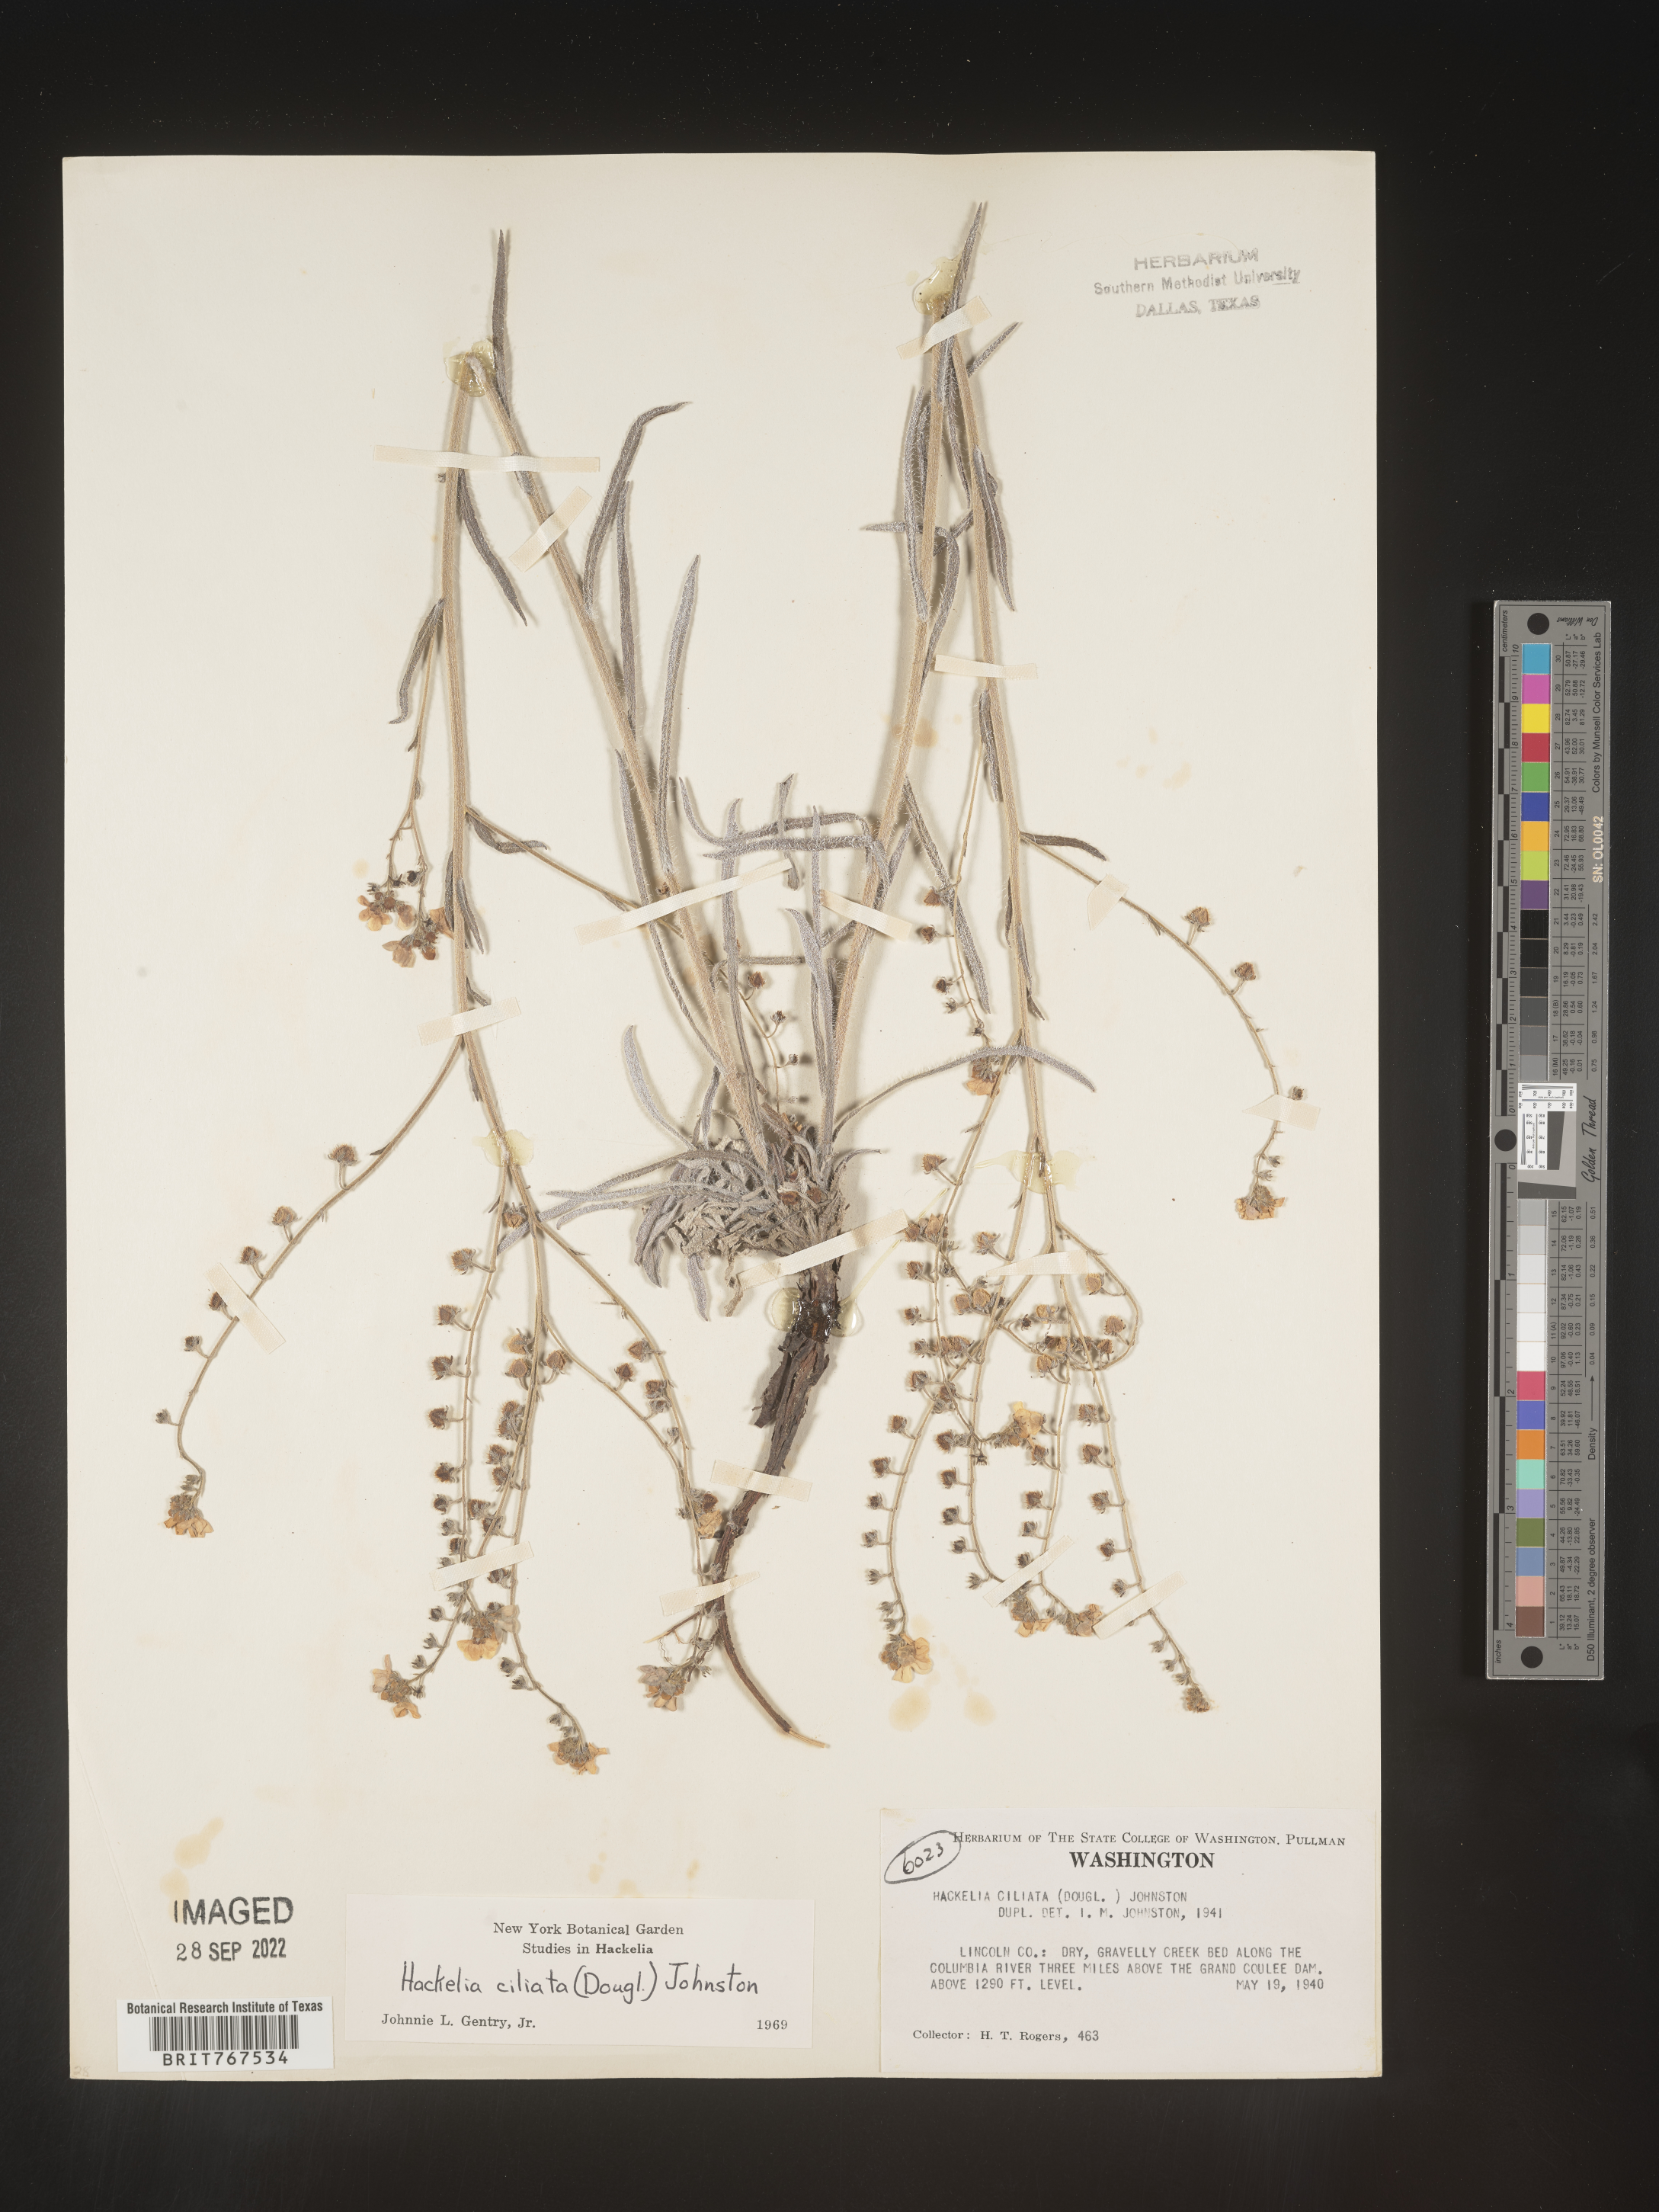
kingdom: Plantae
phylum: Tracheophyta
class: Magnoliopsida
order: Boraginales
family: Boraginaceae
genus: Hackelia
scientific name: Hackelia
